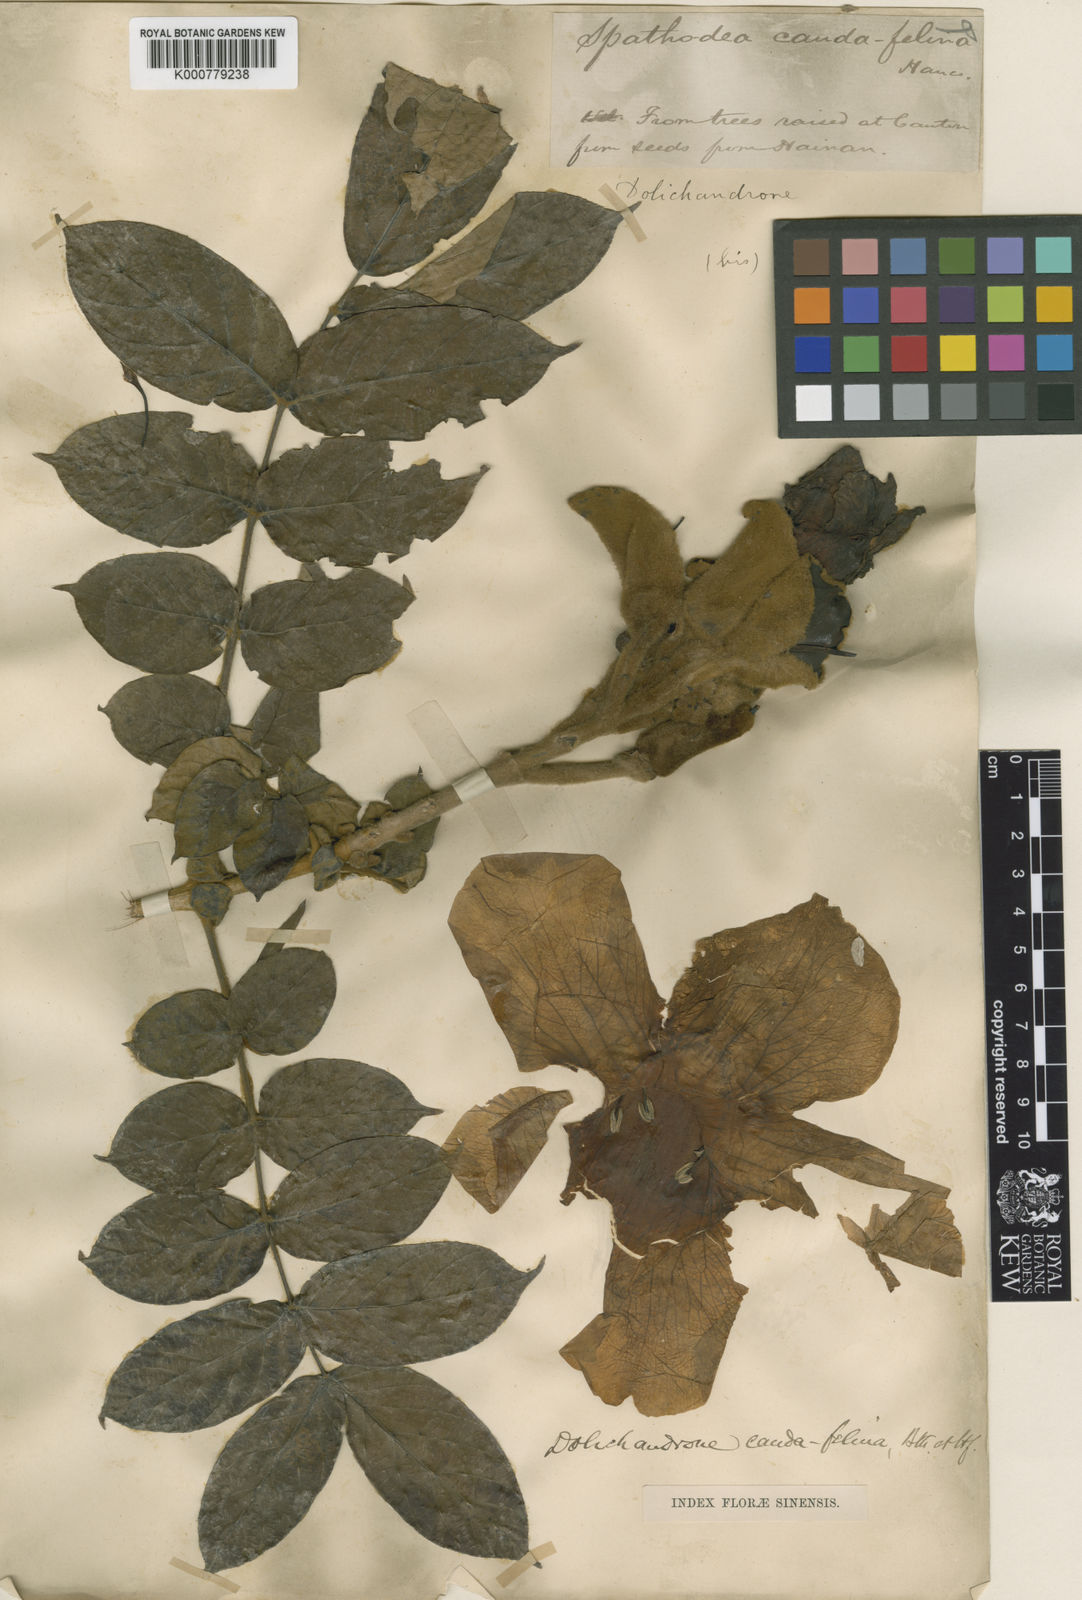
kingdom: Plantae
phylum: Tracheophyta
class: Magnoliopsida
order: Lamiales
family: Bignoniaceae
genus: Markhamia
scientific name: Markhamia stipulata
